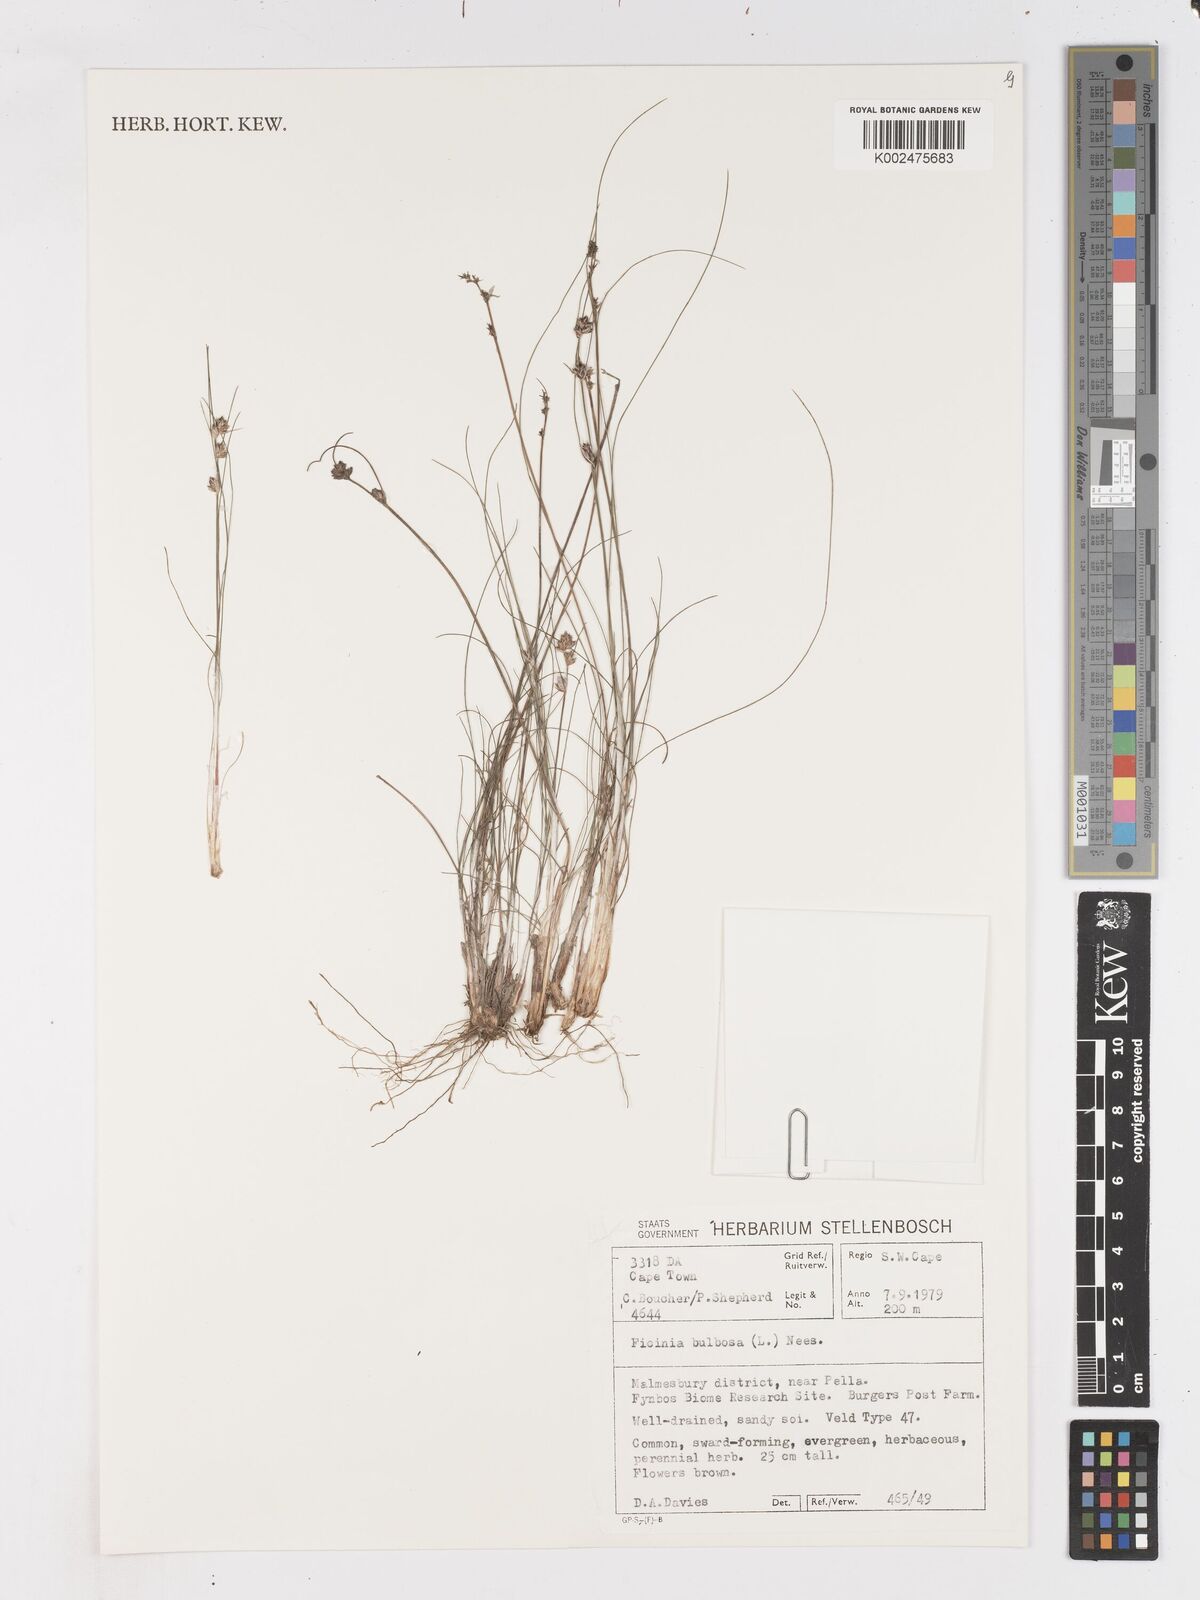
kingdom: Plantae
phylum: Tracheophyta
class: Liliopsida
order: Poales
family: Cyperaceae
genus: Ficinia
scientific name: Ficinia bulbosa
